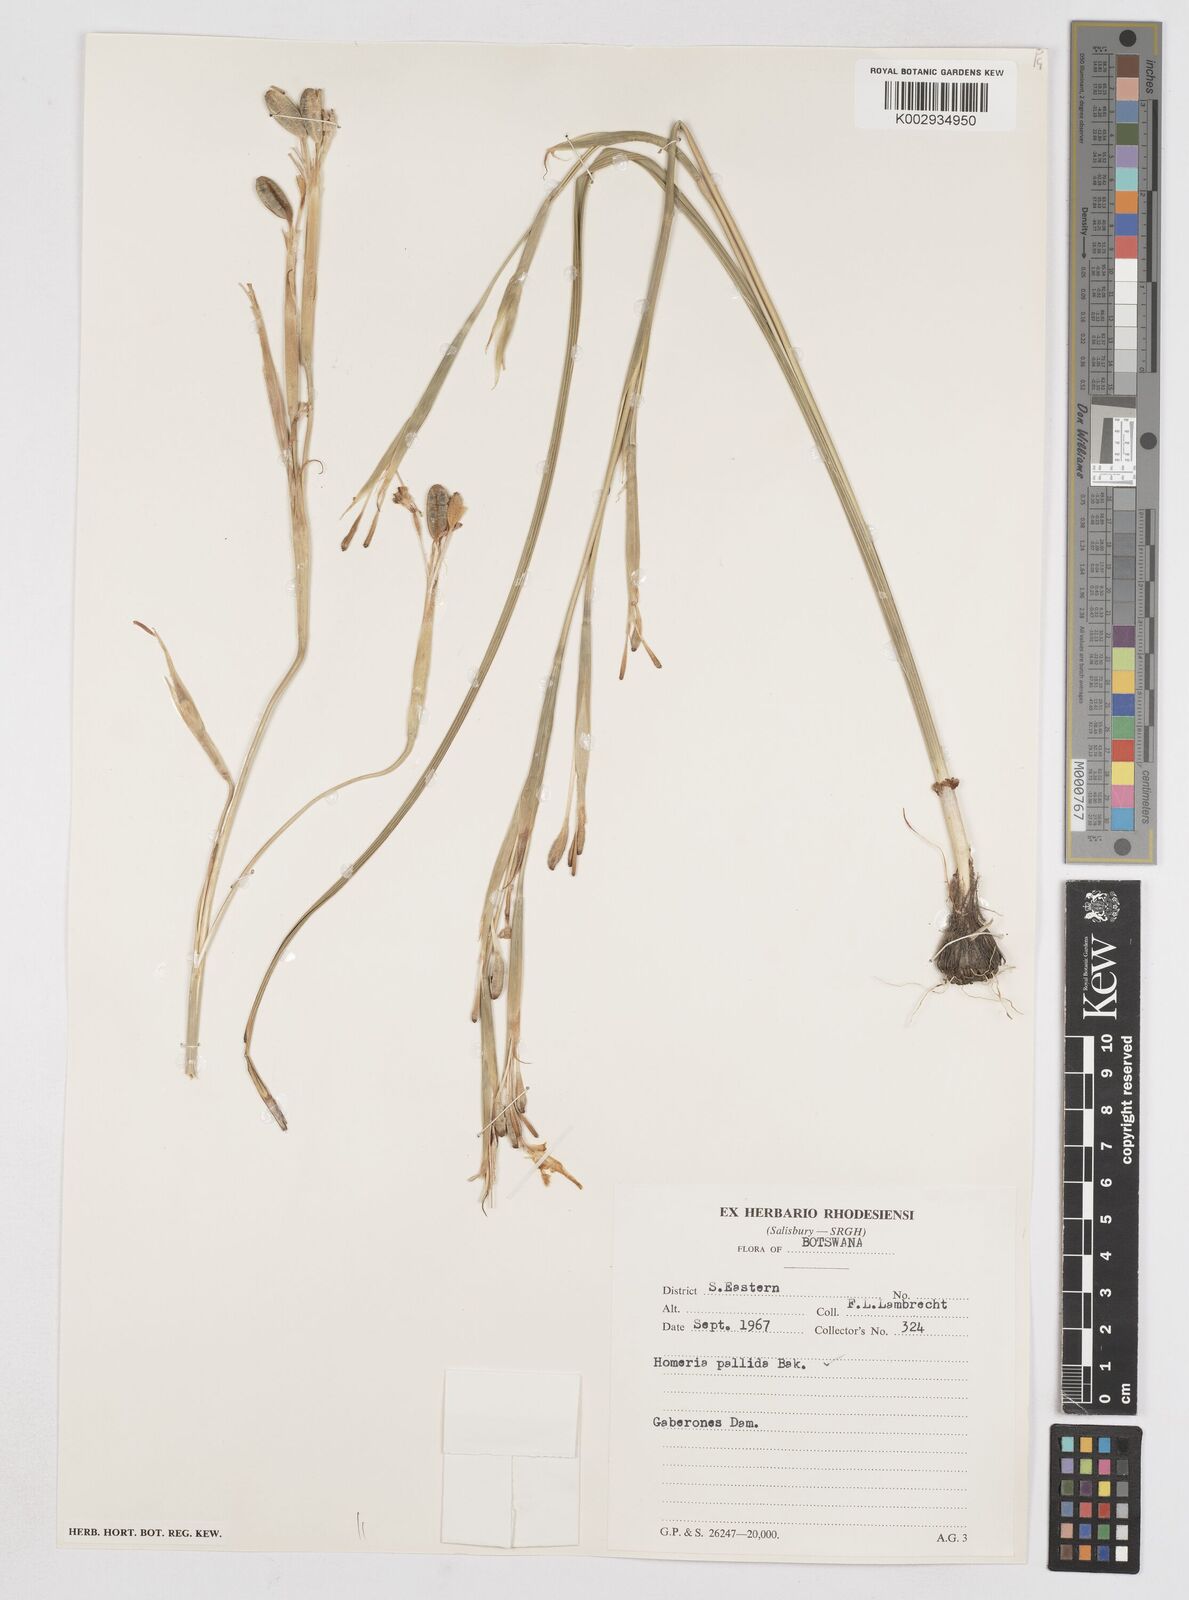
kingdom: Plantae
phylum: Tracheophyta
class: Liliopsida
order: Asparagales
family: Iridaceae
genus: Moraea
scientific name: Moraea pallida
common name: Yellow tulp
